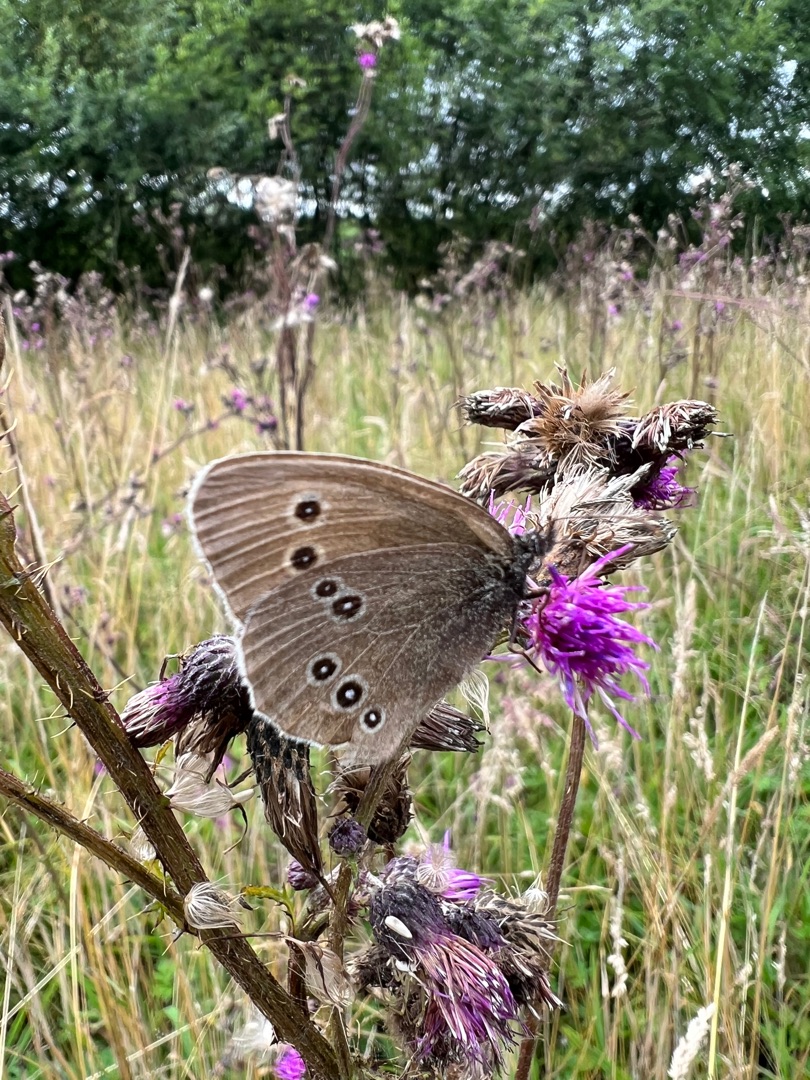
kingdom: Animalia
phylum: Arthropoda
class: Insecta
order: Lepidoptera
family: Nymphalidae
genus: Aphantopus
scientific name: Aphantopus hyperantus
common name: Engrandøje
